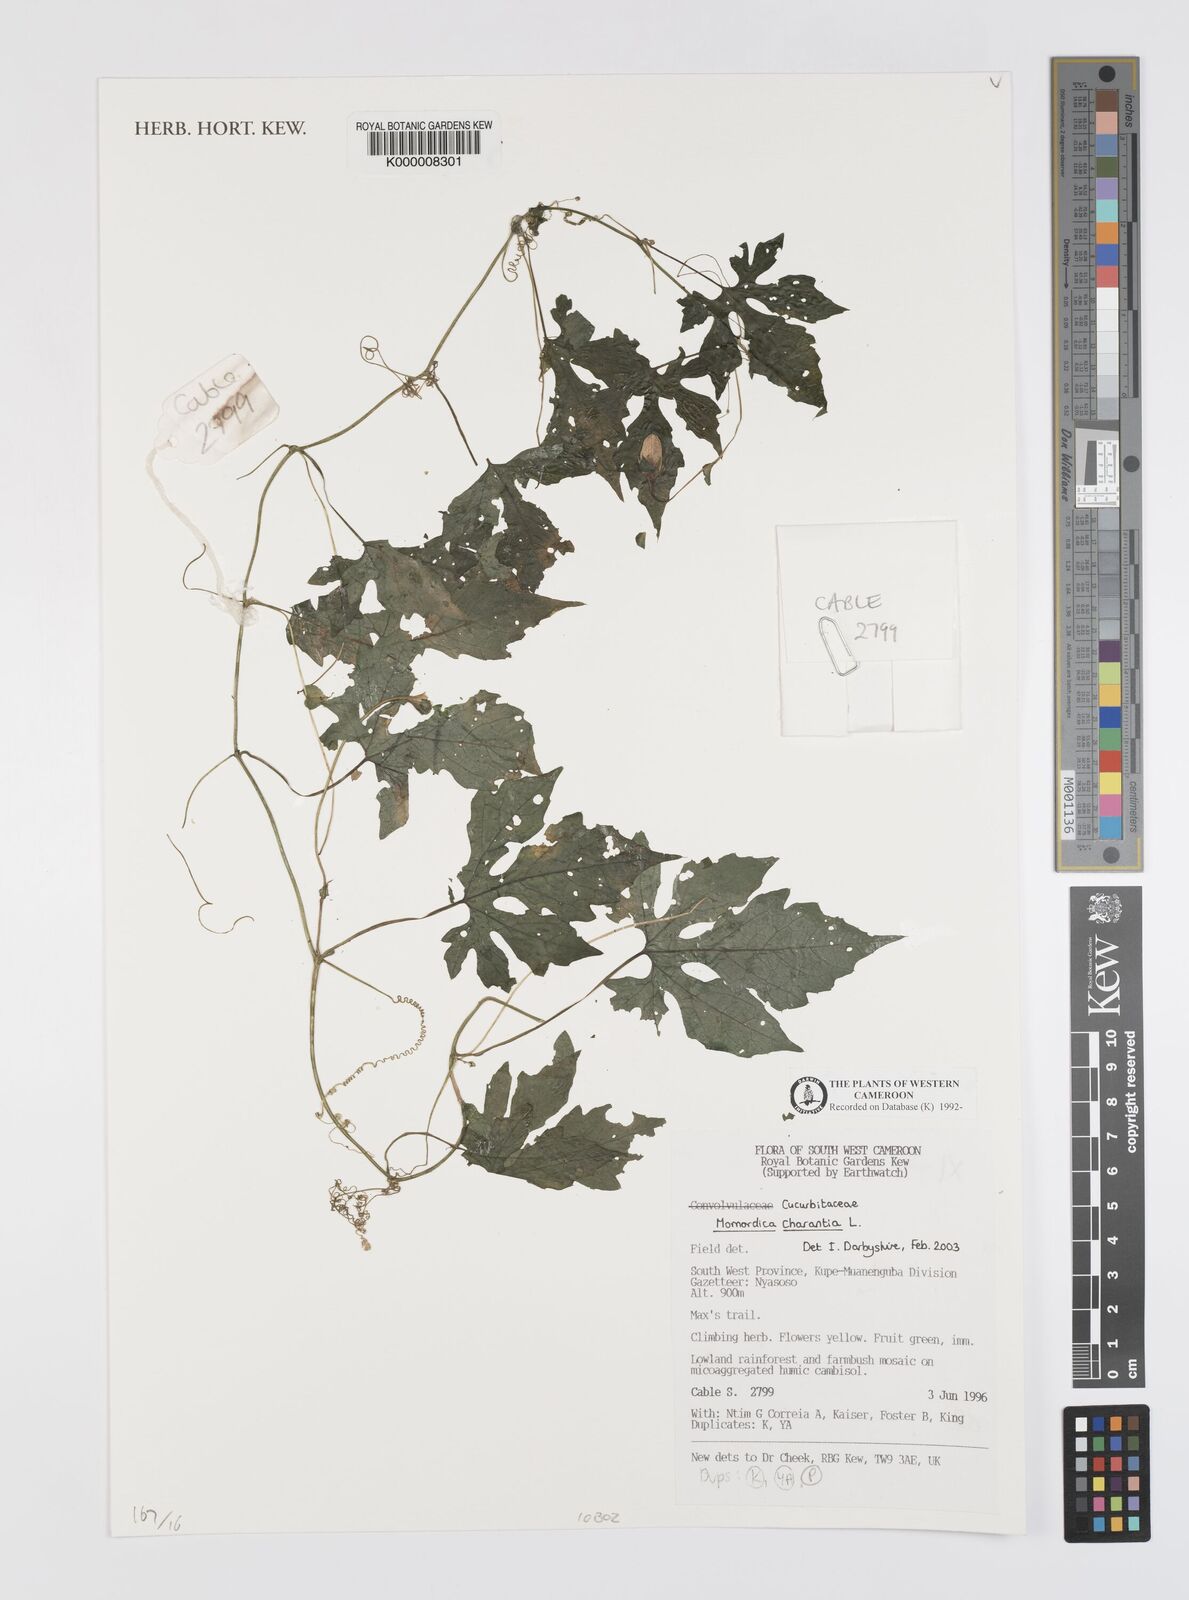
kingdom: Plantae
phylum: Tracheophyta
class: Magnoliopsida
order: Cucurbitales
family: Cucurbitaceae
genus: Momordica
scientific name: Momordica charantia
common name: Balsampear
